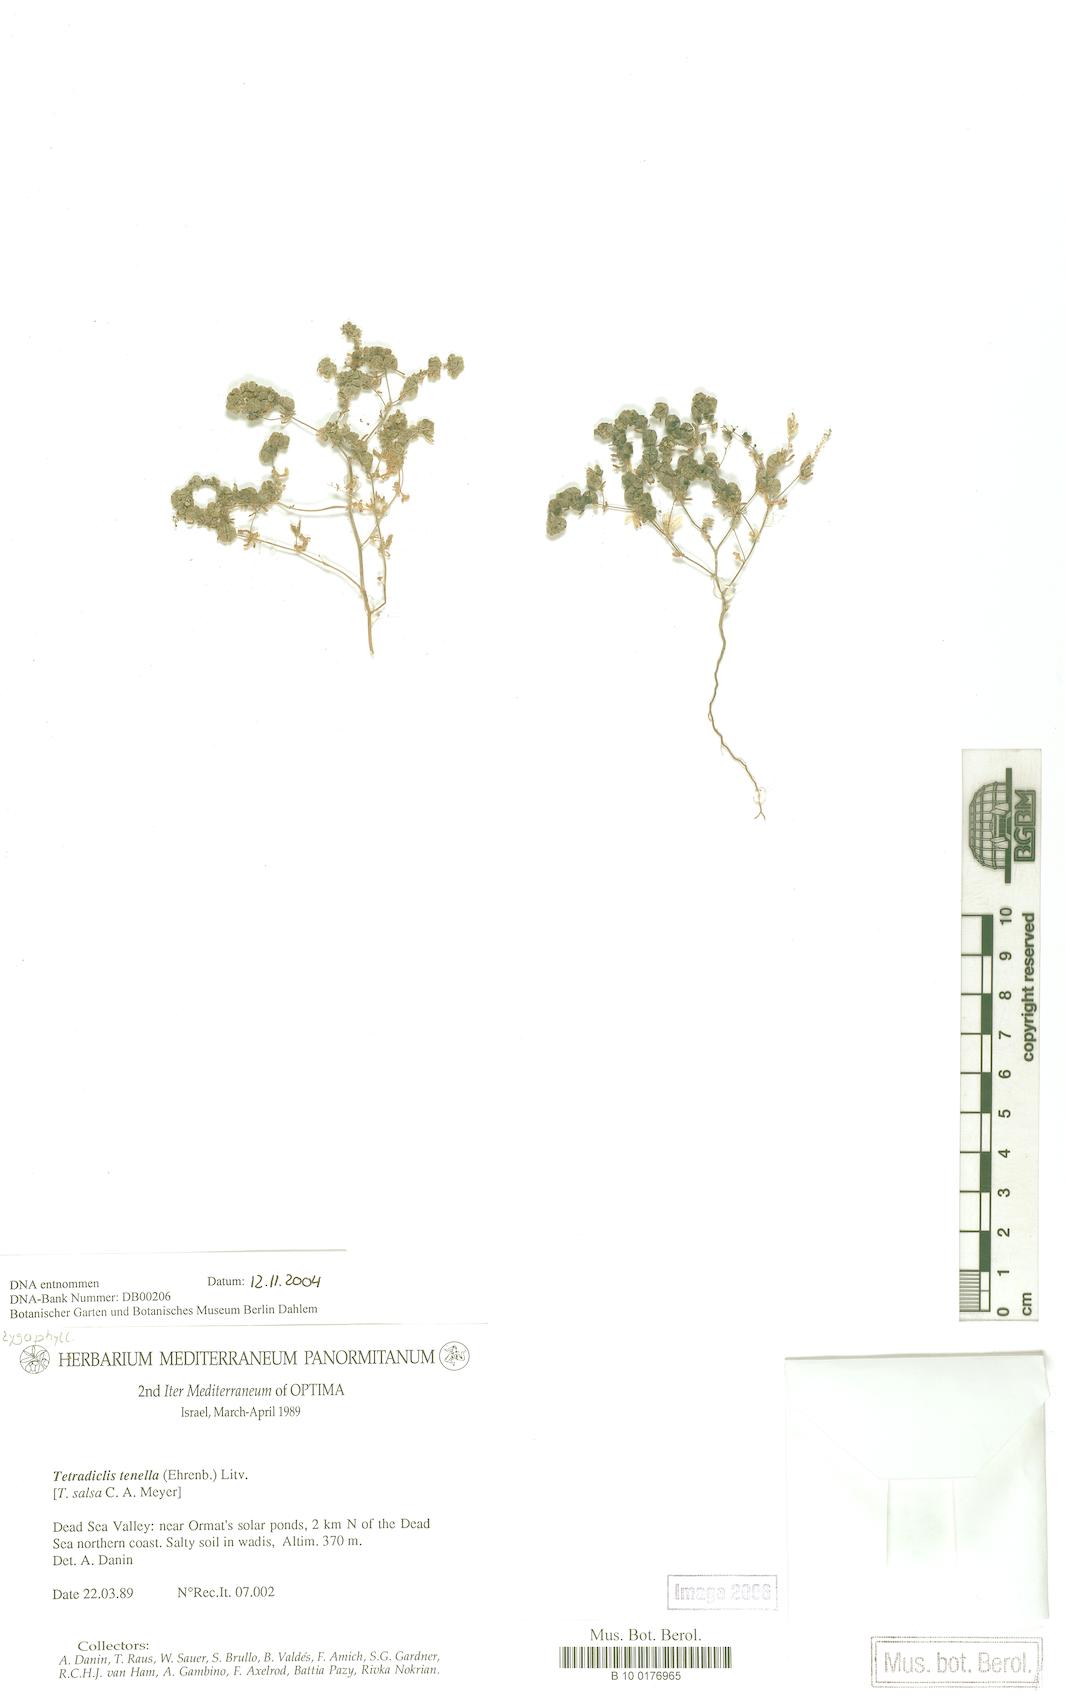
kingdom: Plantae
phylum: Tracheophyta
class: Magnoliopsida
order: Sapindales
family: Tetradiclidaceae
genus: Tetradiclis
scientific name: Tetradiclis tenella
